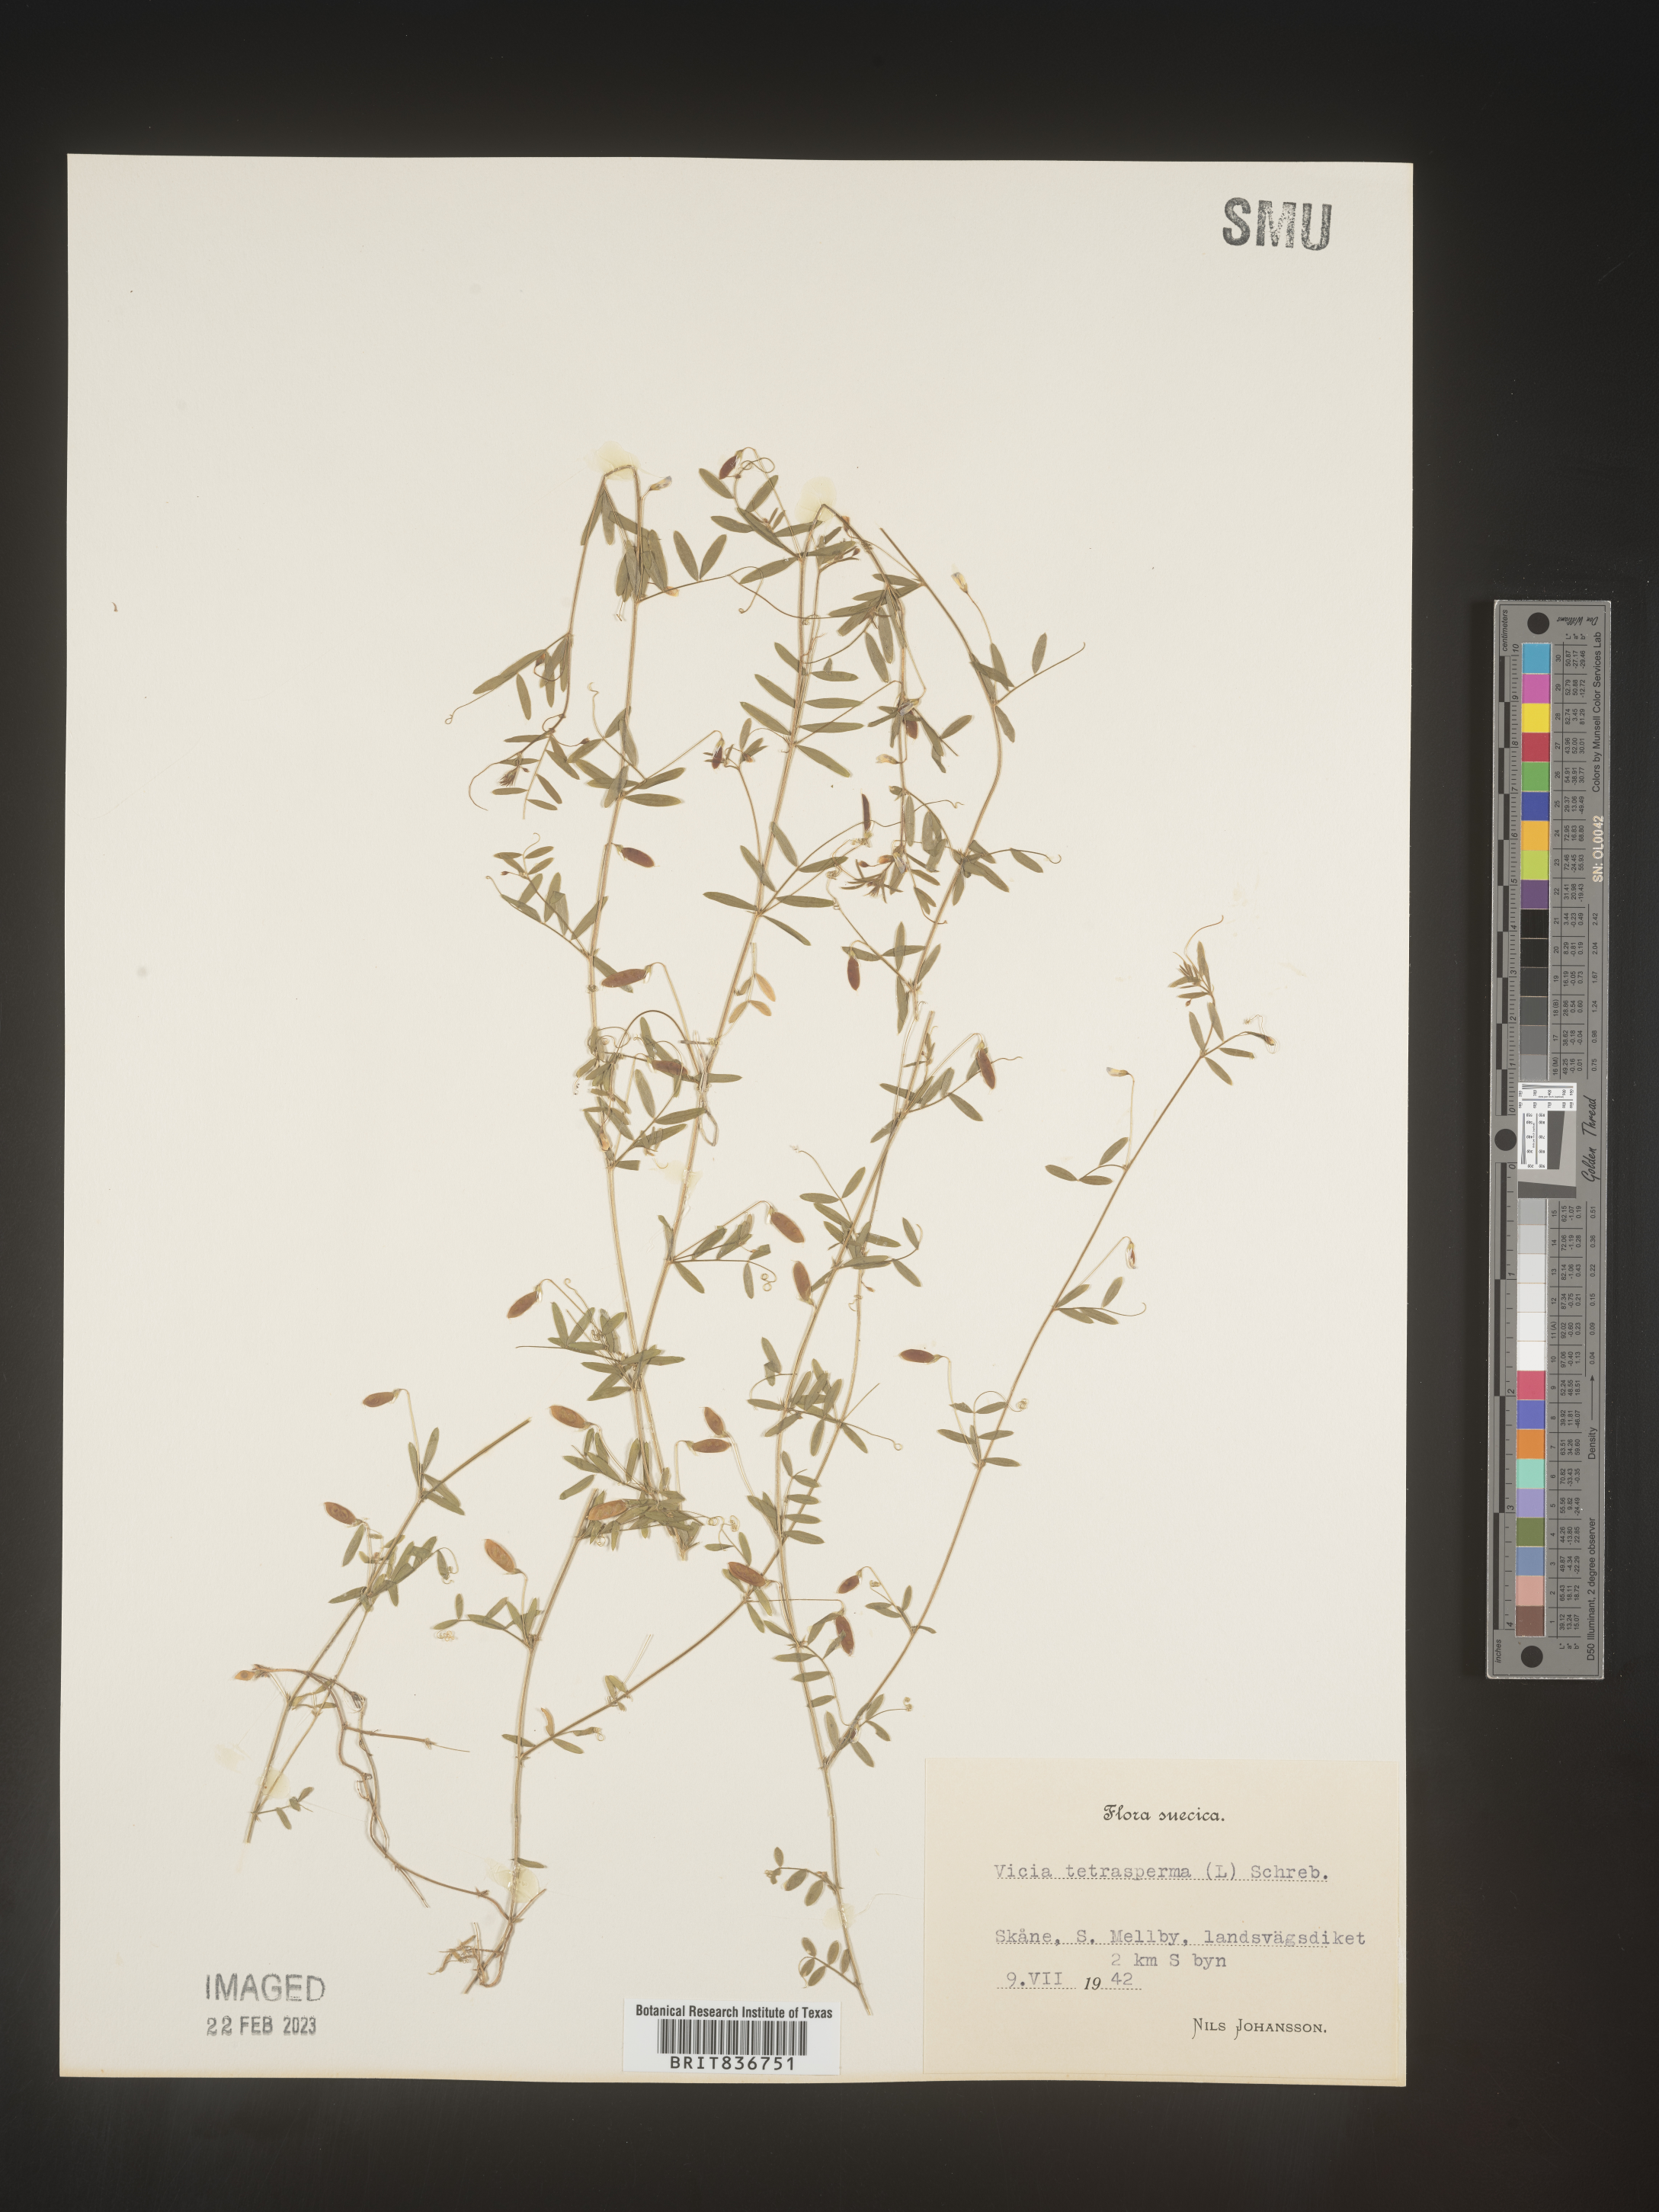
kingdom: Plantae
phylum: Tracheophyta
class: Magnoliopsida
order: Fabales
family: Fabaceae
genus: Vicia
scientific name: Vicia
